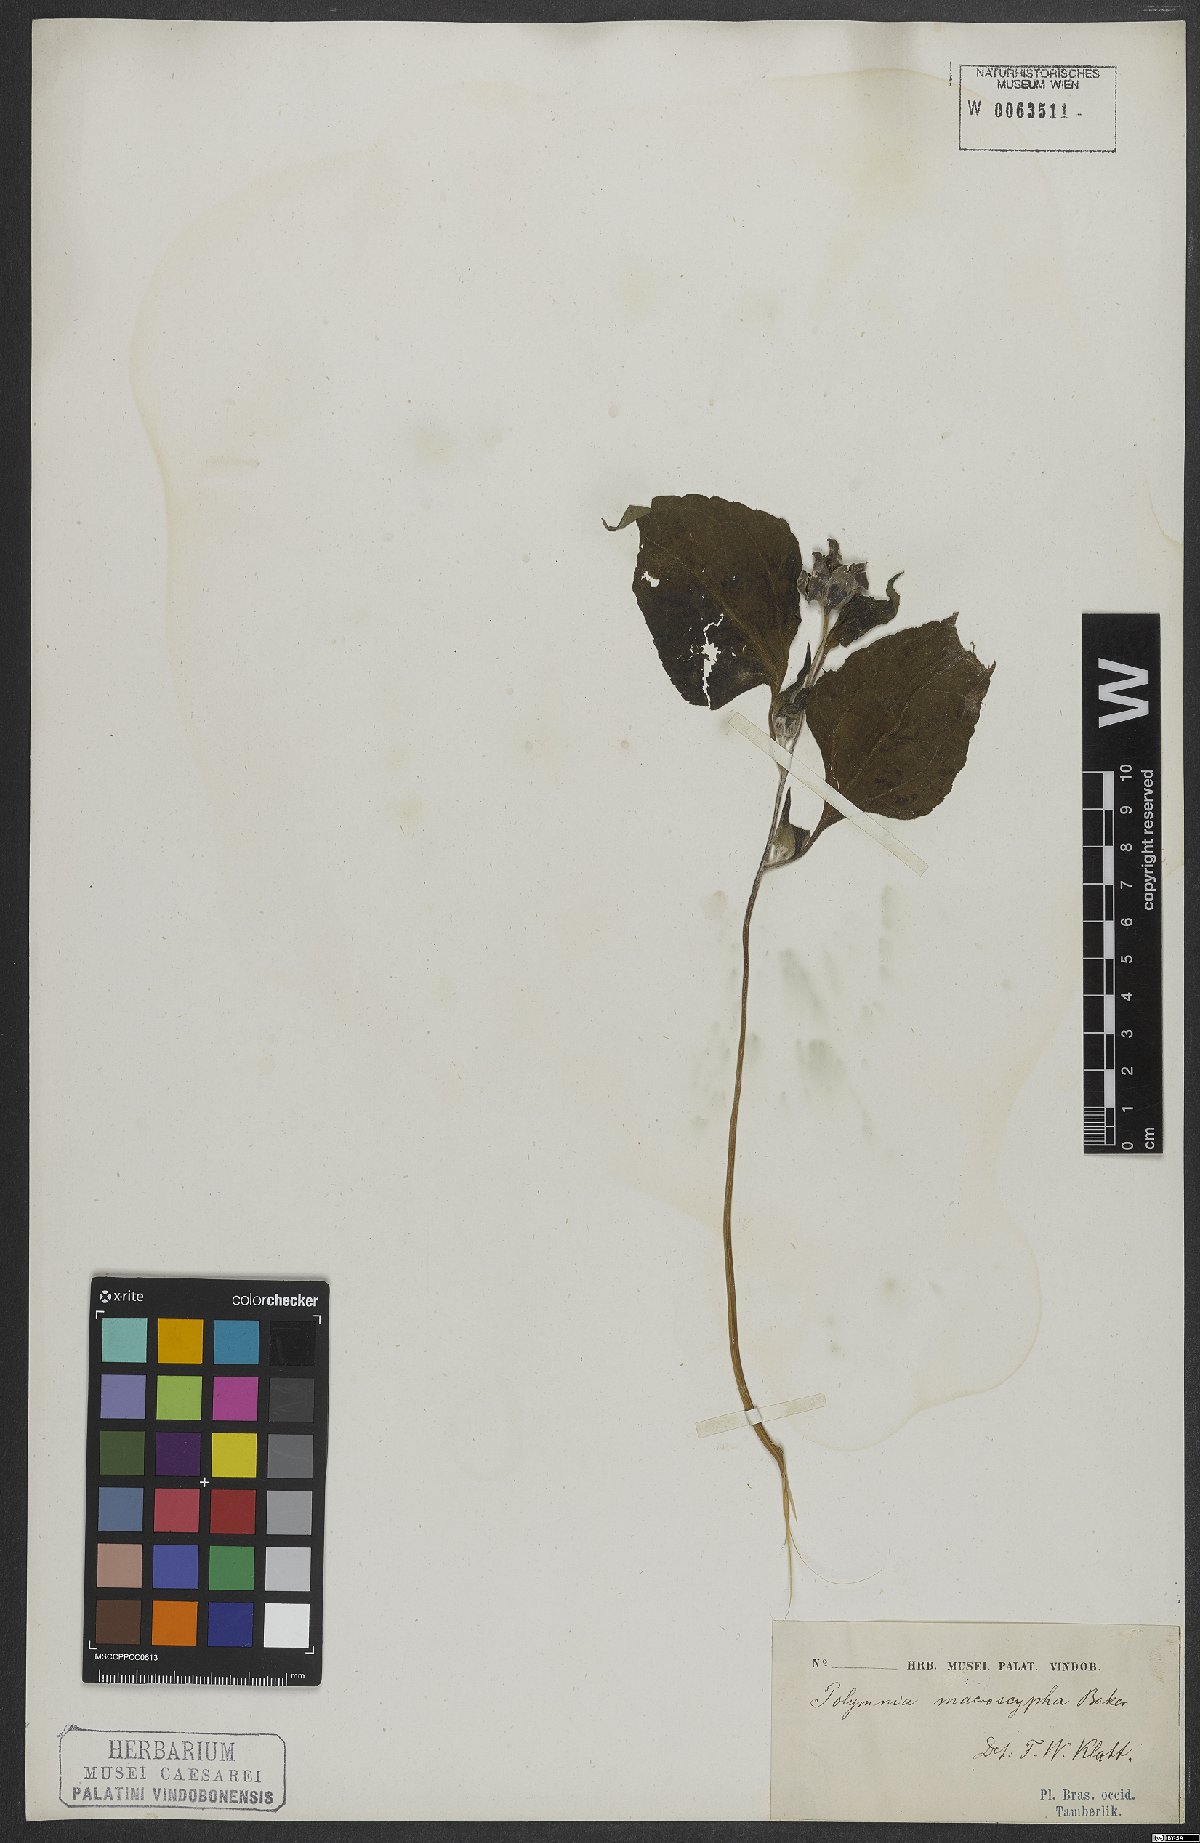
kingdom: Plantae
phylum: Tracheophyta
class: Magnoliopsida
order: Asterales
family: Asteraceae
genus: Smallanthus
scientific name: Smallanthus macroscyphus
